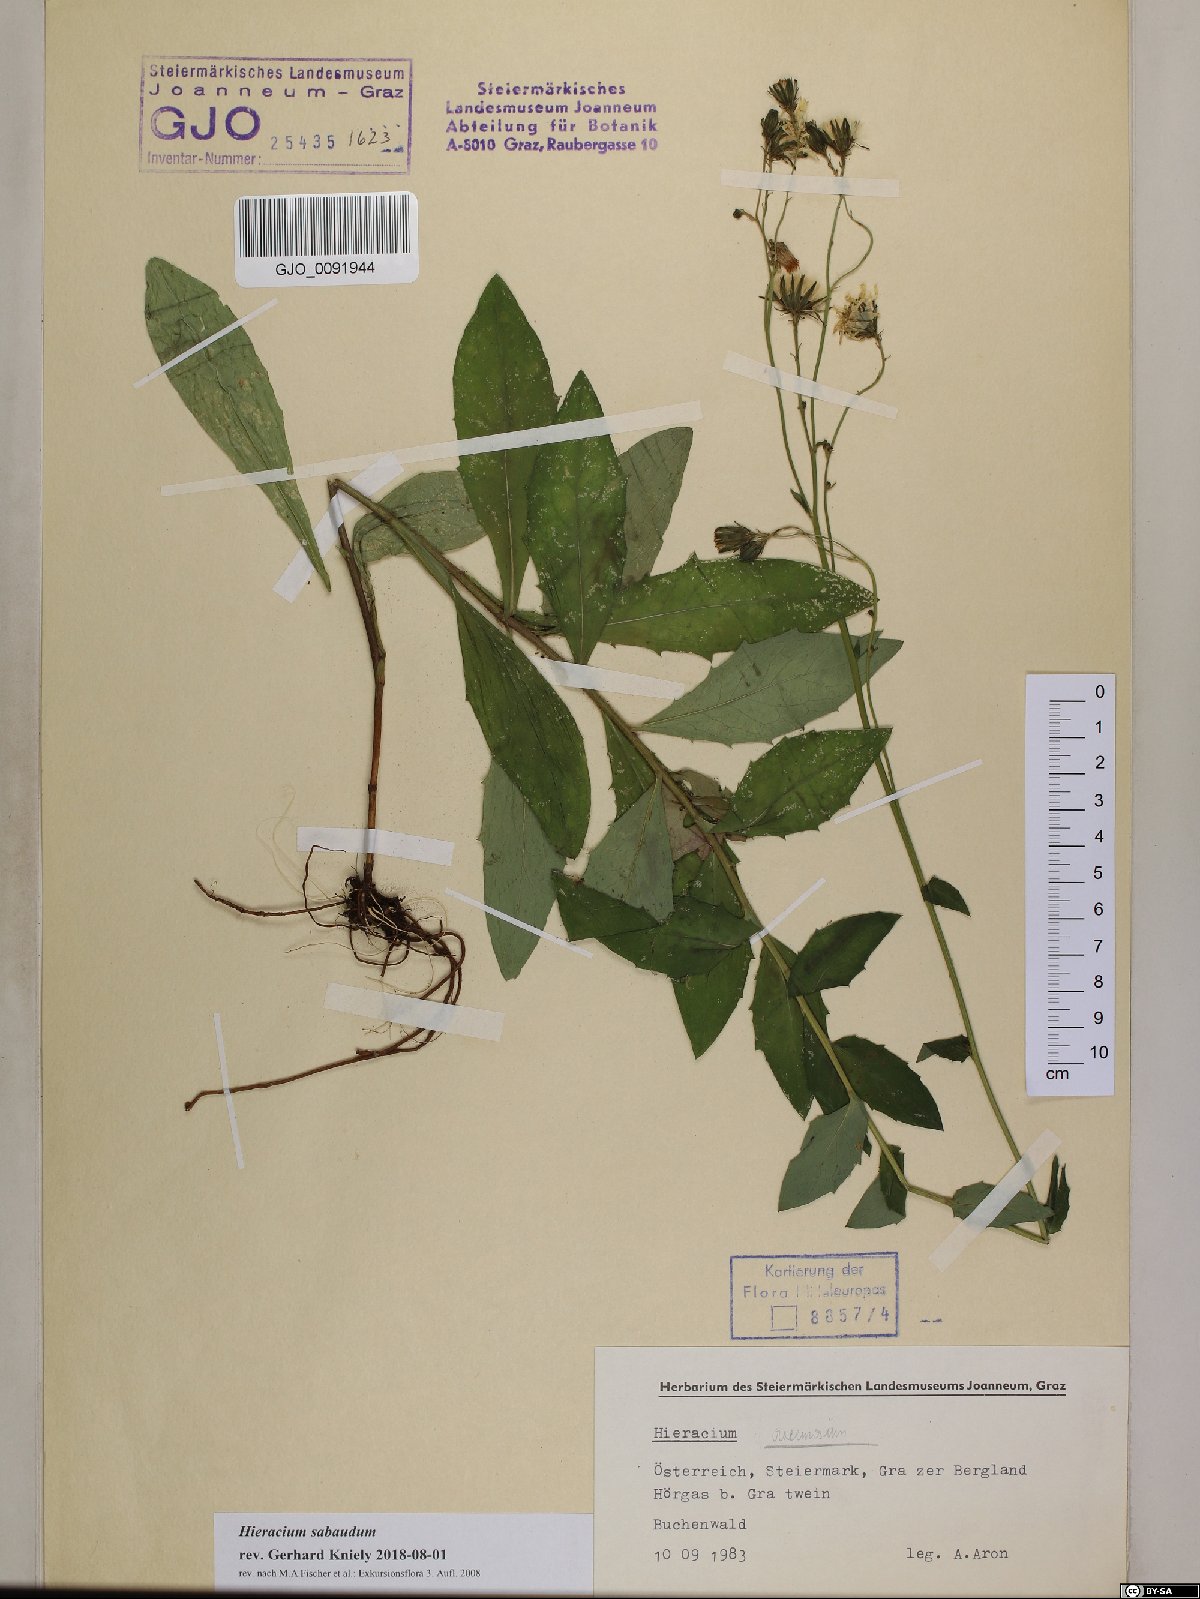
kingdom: Plantae
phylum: Tracheophyta
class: Magnoliopsida
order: Asterales
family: Asteraceae
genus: Hieracium
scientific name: Hieracium sabaudum
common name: New england hawkweed
